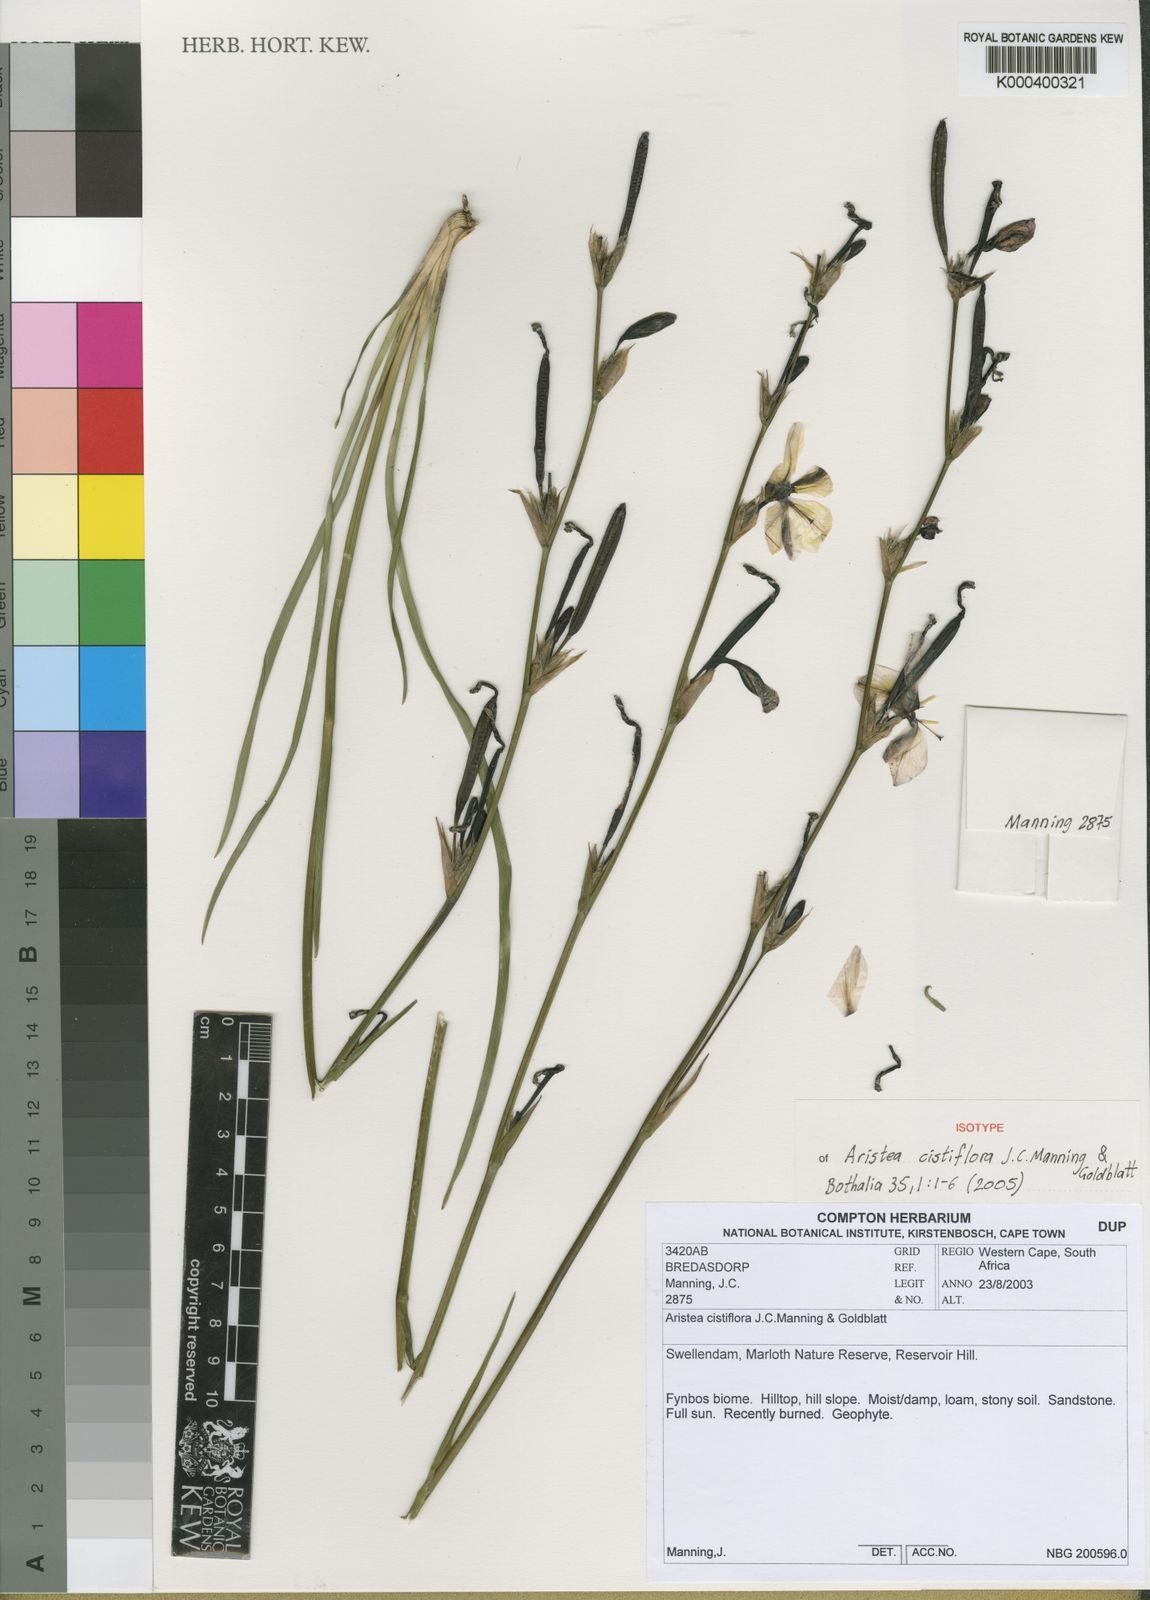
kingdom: Plantae
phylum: Tracheophyta
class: Liliopsida
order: Asparagales
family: Iridaceae
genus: Aristea
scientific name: Aristea cistiflora
